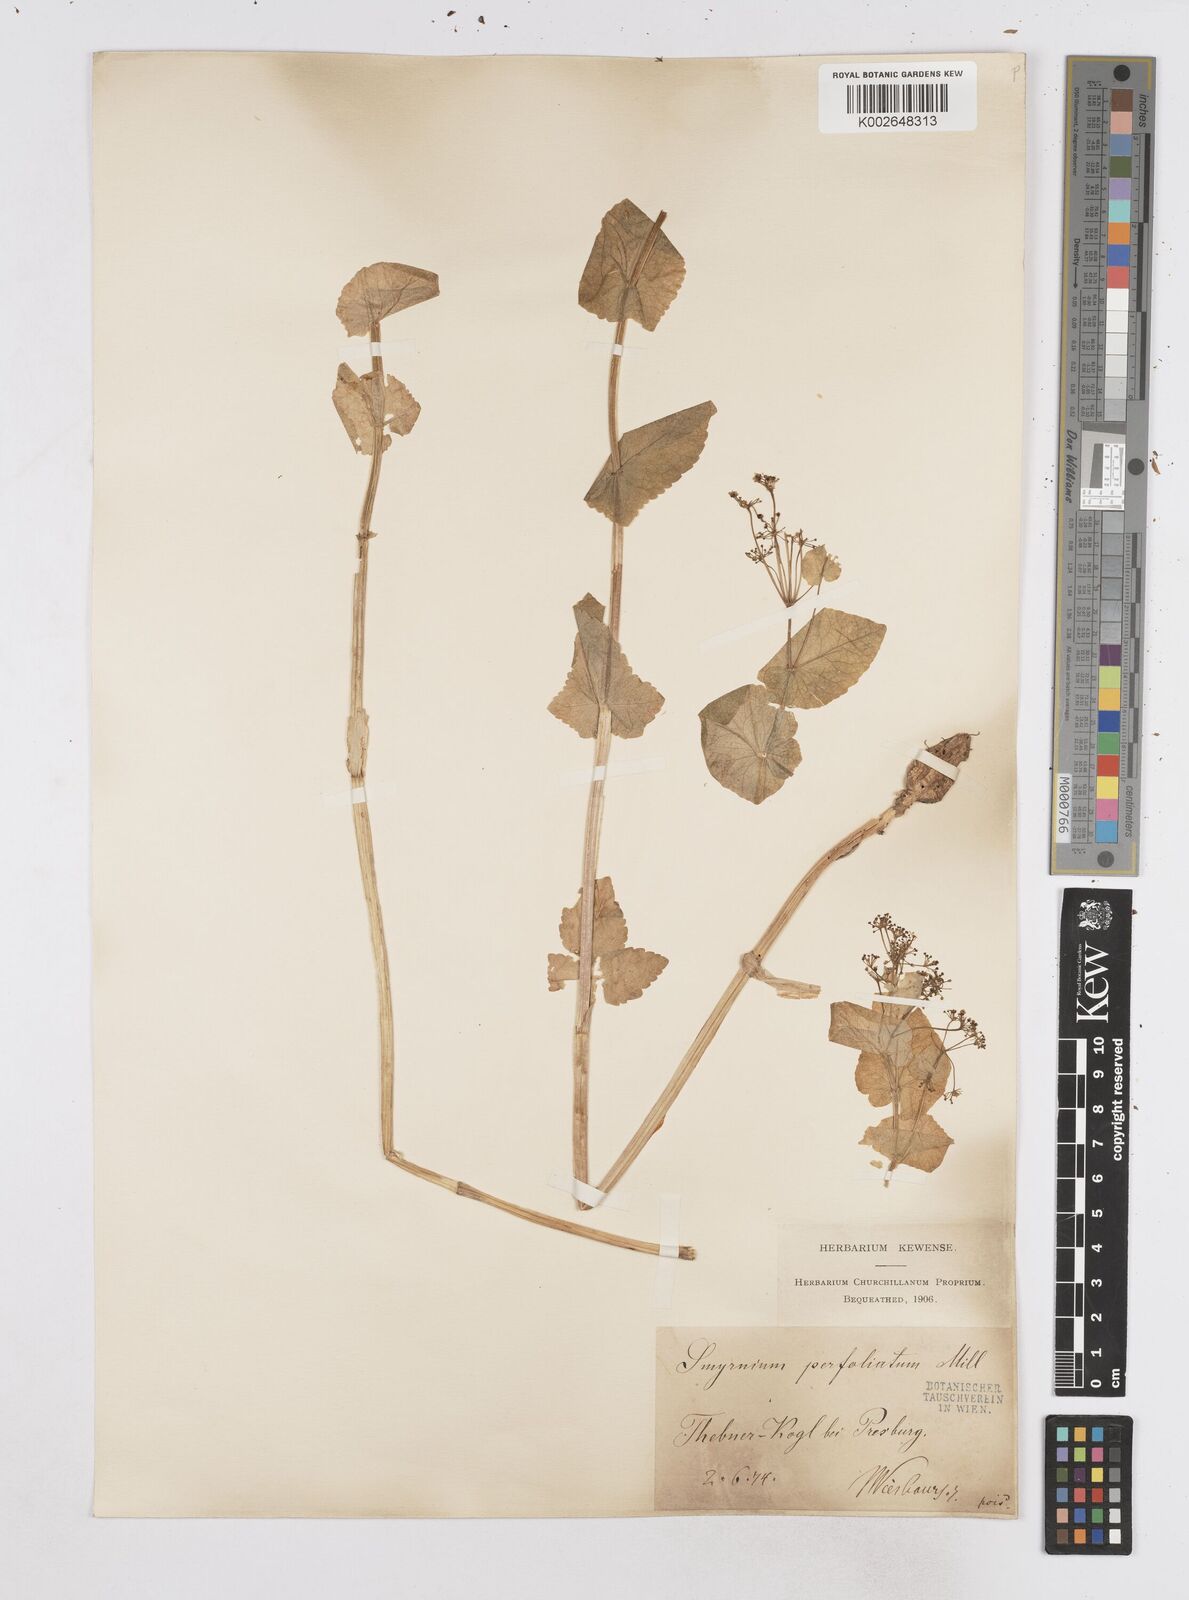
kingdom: Plantae
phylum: Tracheophyta
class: Magnoliopsida
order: Apiales
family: Apiaceae
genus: Smyrnium
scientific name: Smyrnium perfoliatum
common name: Perfoliate alexanders
